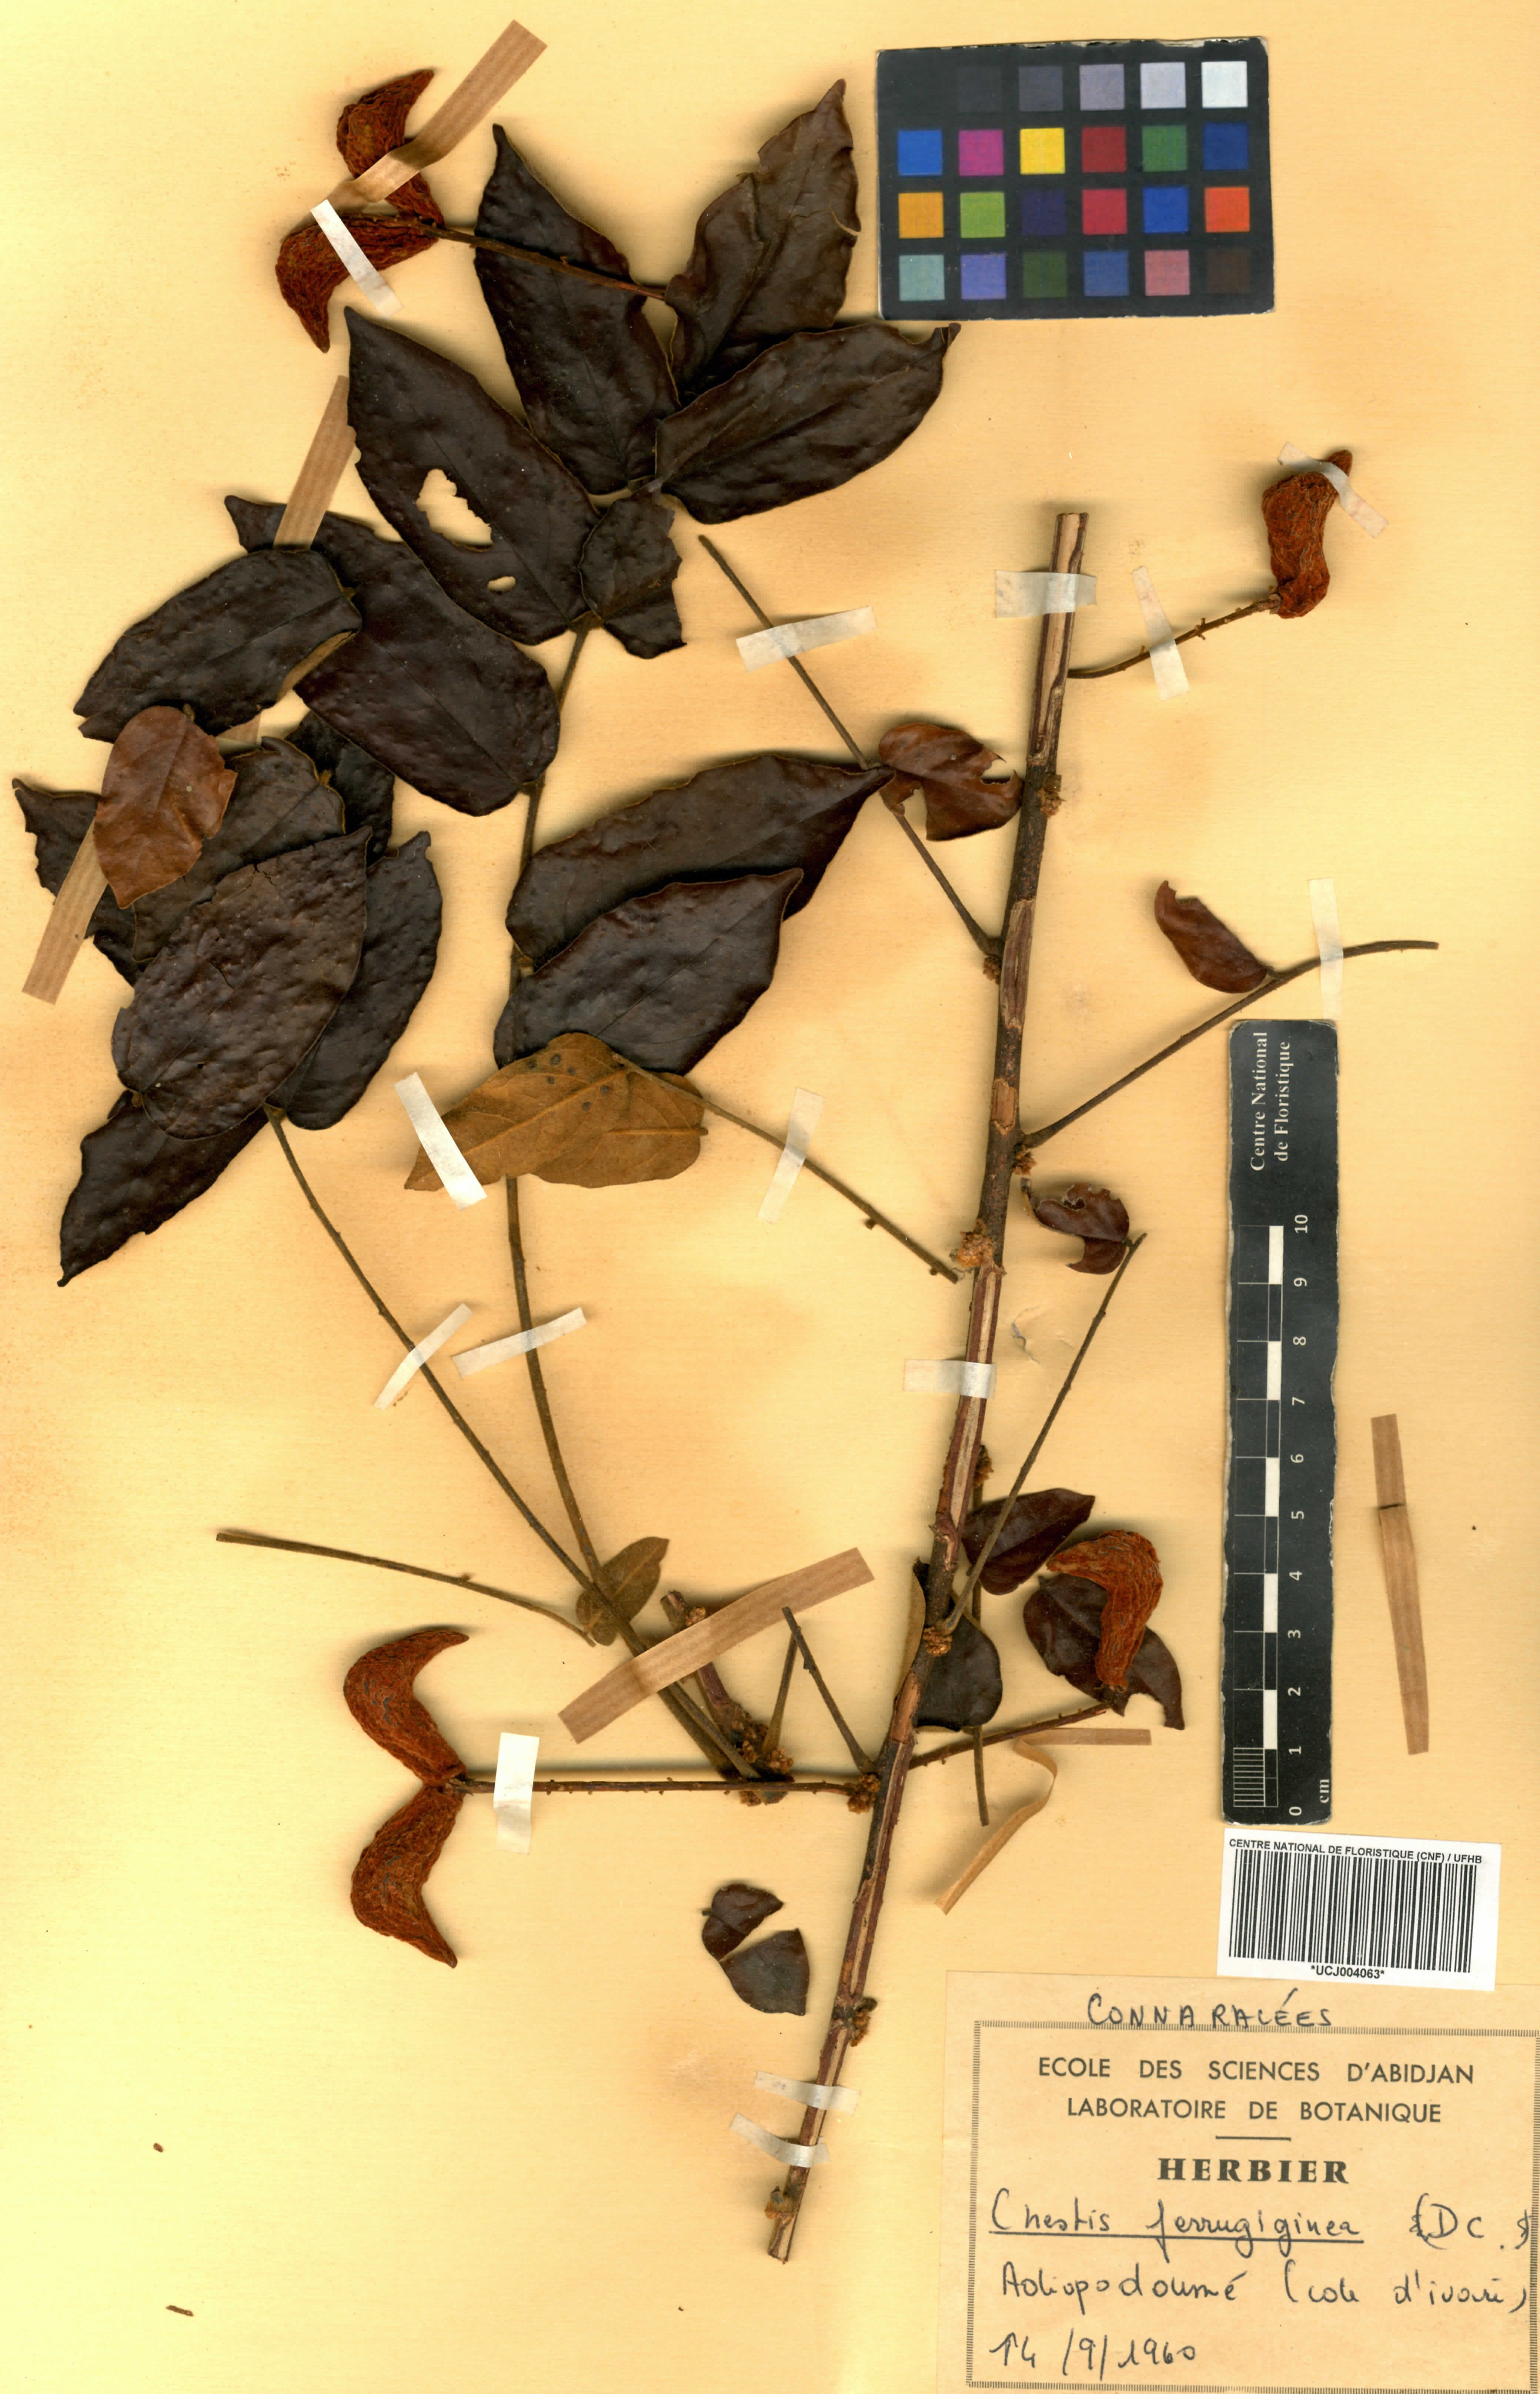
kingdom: Plantae
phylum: Tracheophyta
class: Magnoliopsida
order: Oxalidales
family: Connaraceae
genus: Cnestis
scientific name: Cnestis ferruginea
